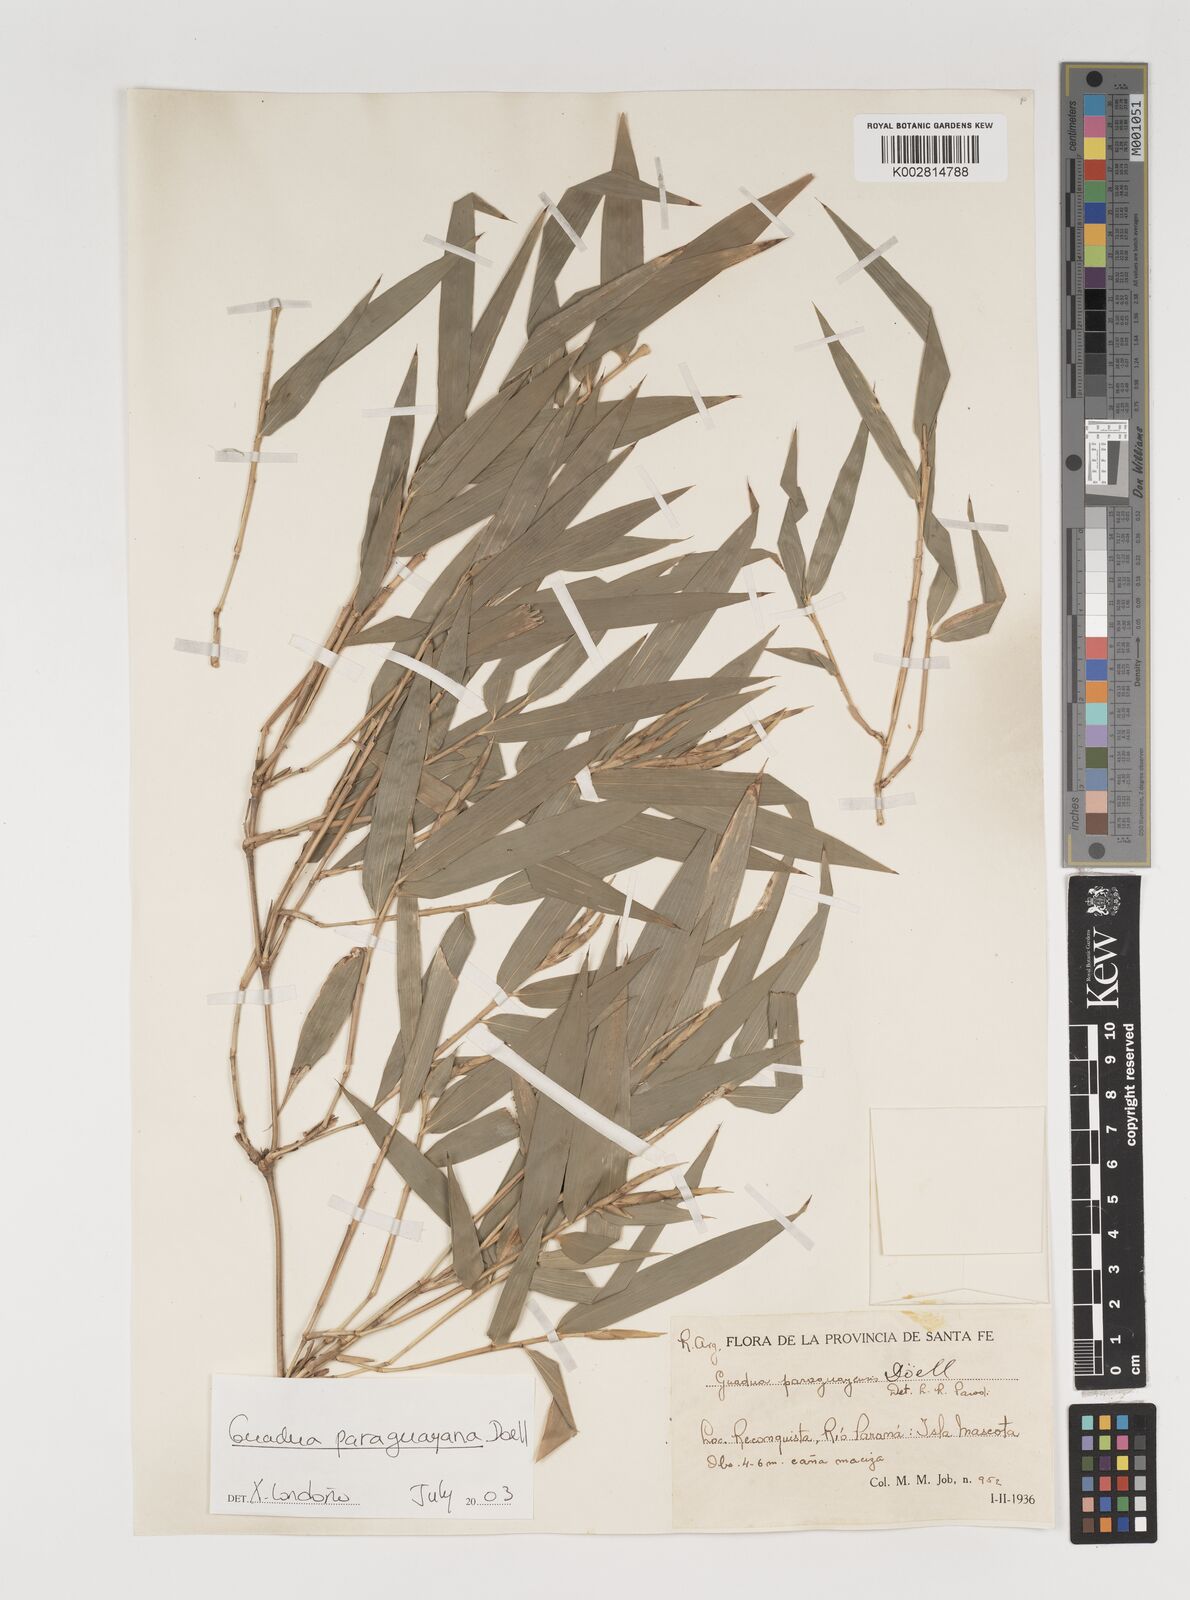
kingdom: Plantae
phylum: Tracheophyta
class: Liliopsida
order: Poales
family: Poaceae
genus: Guadua
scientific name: Guadua paraguayana
